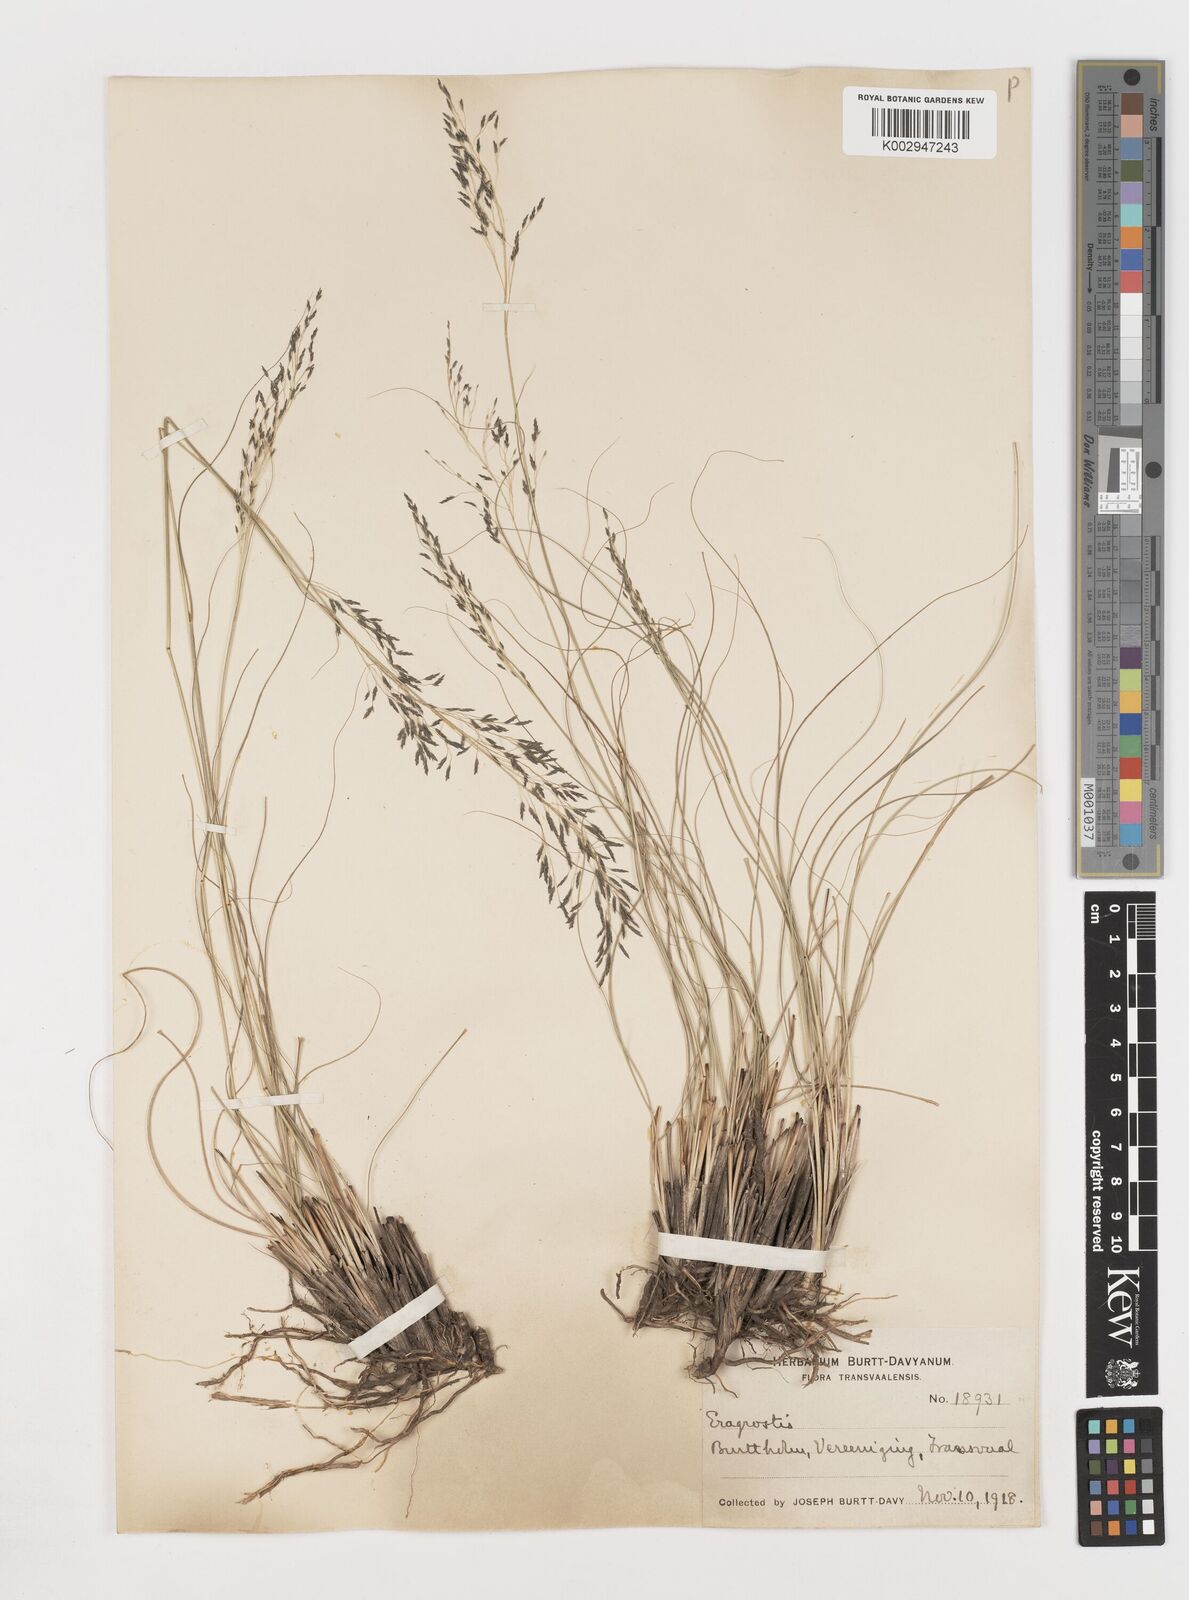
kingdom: Plantae
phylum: Tracheophyta
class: Liliopsida
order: Poales
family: Poaceae
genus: Eragrostis
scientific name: Eragrostis
